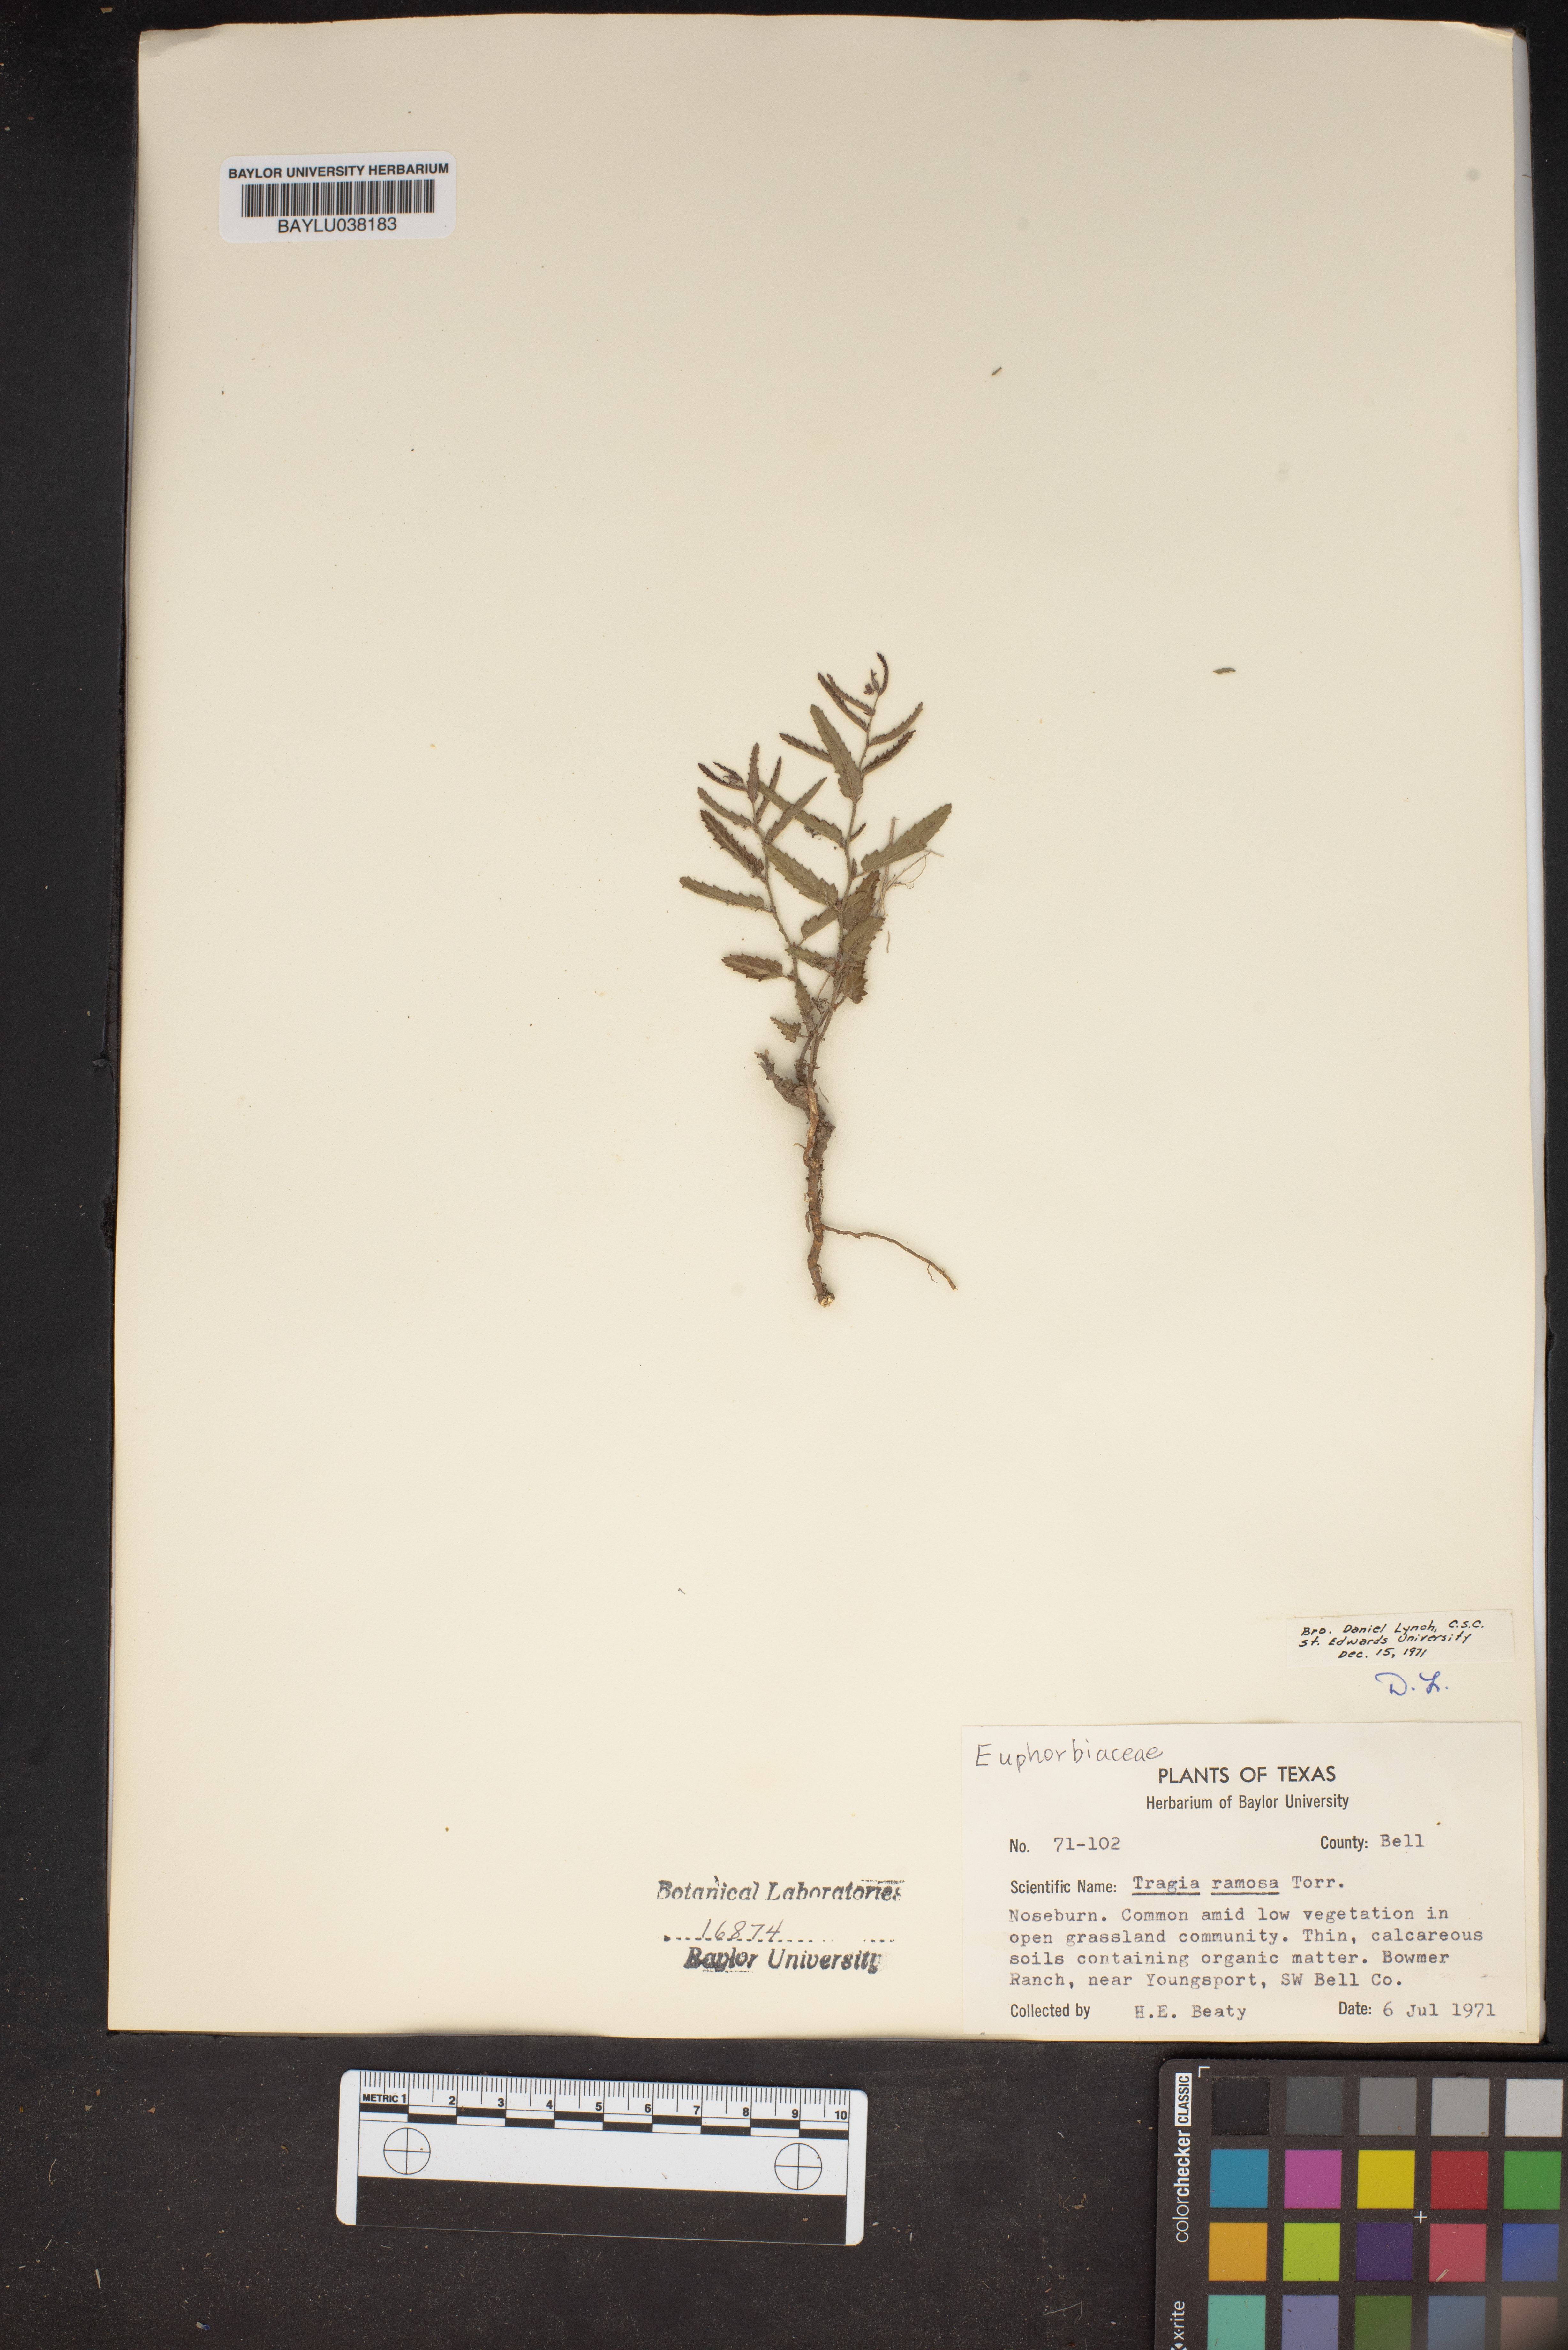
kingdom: Plantae
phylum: Tracheophyta
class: Magnoliopsida
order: Malpighiales
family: Euphorbiaceae
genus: Tragia
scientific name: Tragia ramosa
